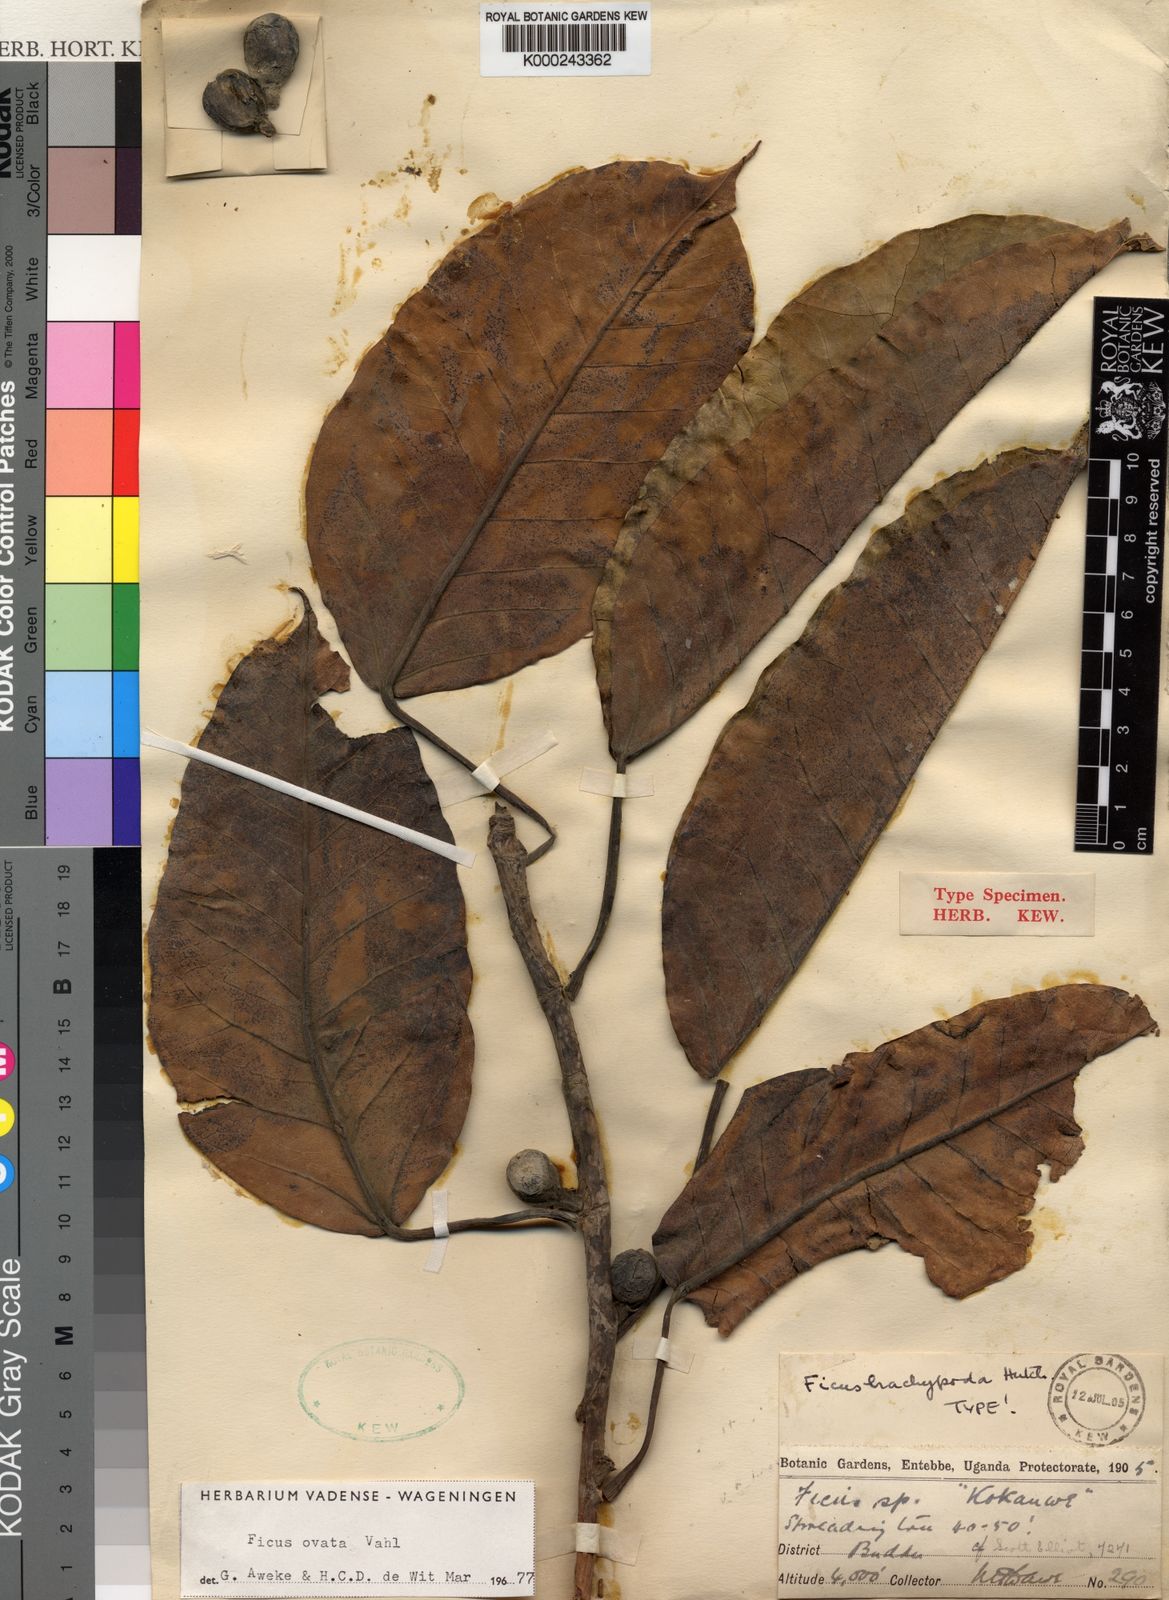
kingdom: Plantae
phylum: Tracheophyta
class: Magnoliopsida
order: Rosales
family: Moraceae
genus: Ficus
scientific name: Ficus laurifolia
